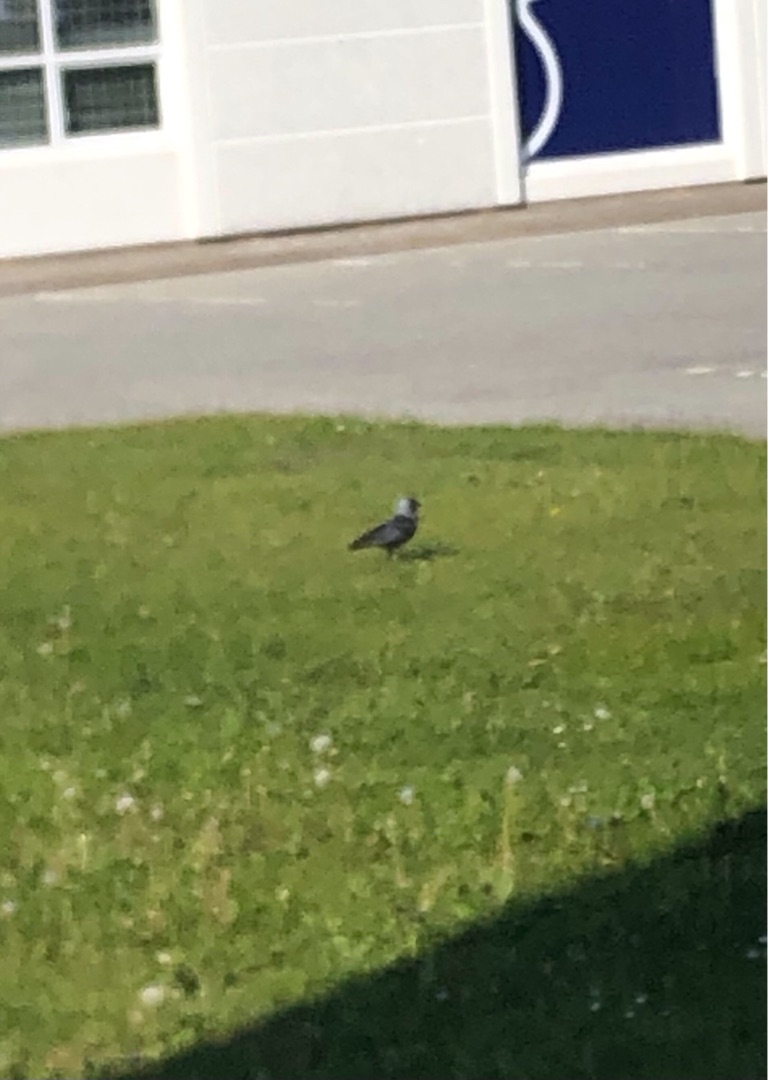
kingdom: Animalia
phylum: Chordata
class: Aves
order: Passeriformes
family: Corvidae
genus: Coloeus
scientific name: Coloeus monedula
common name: Allike
